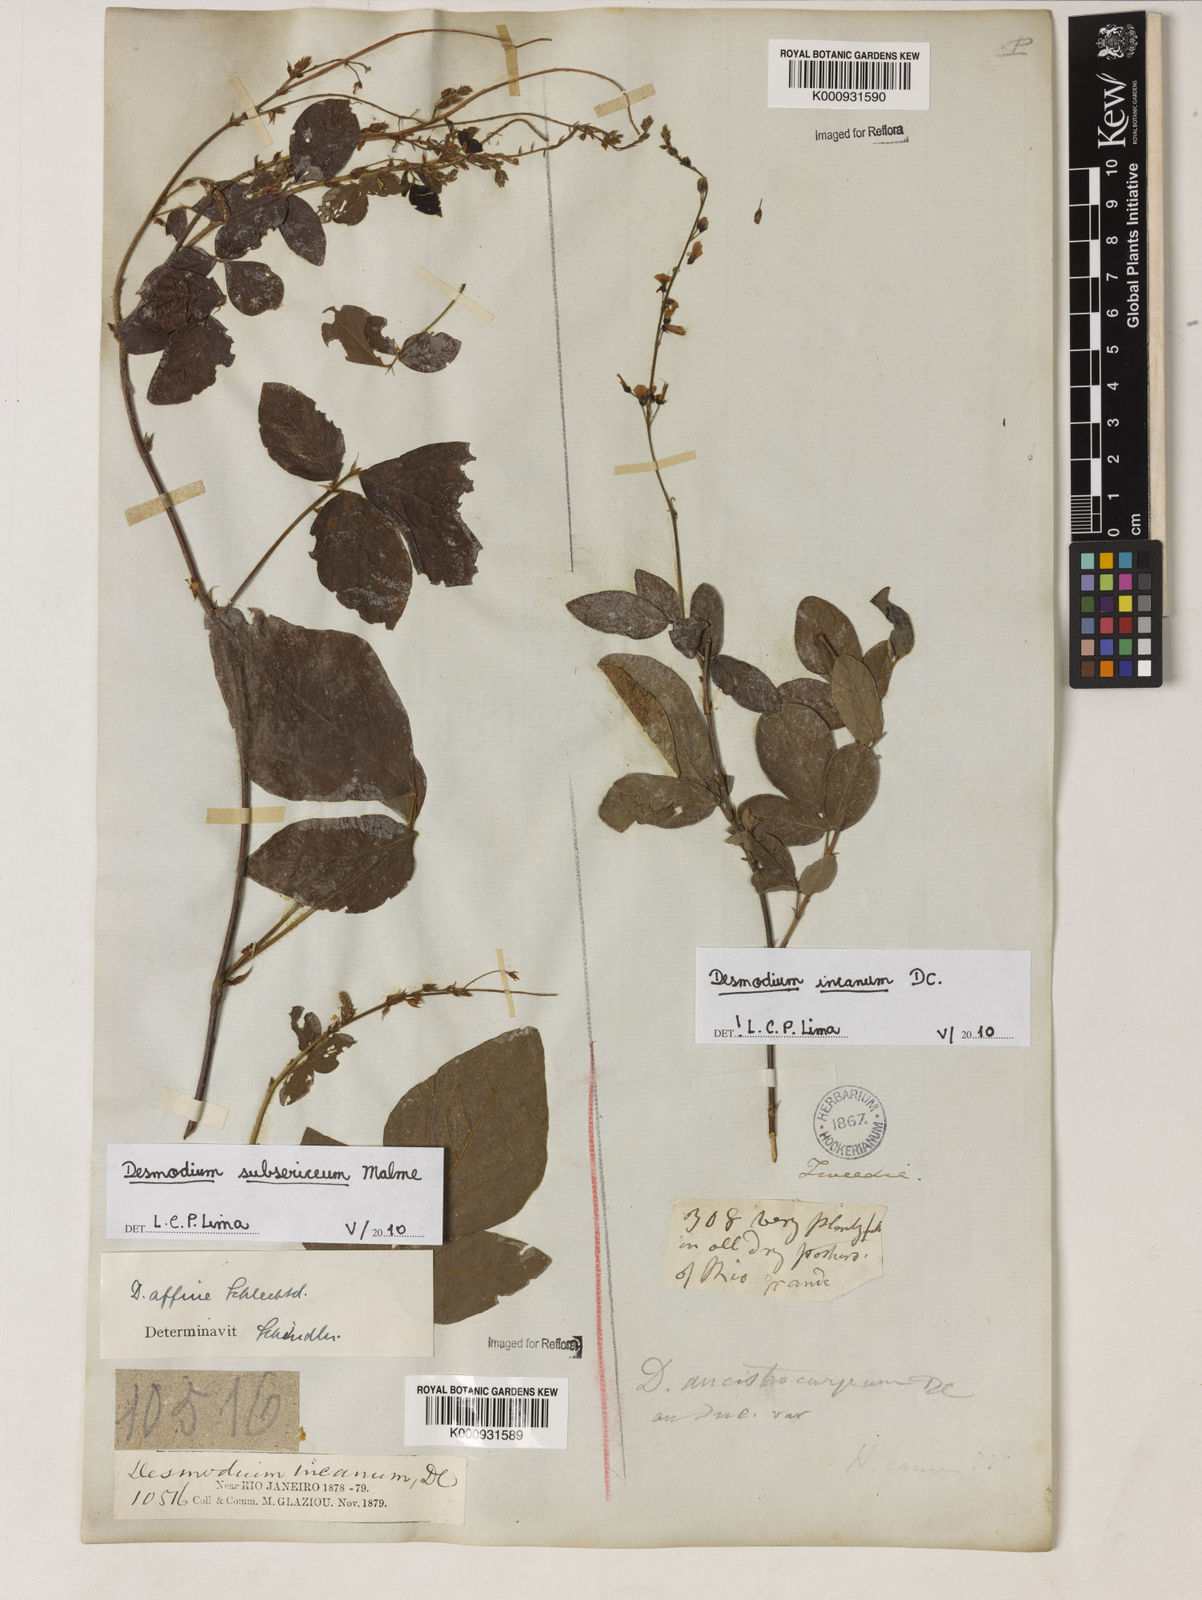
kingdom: Plantae
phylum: Tracheophyta
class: Magnoliopsida
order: Fabales
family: Fabaceae
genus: Desmodium
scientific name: Desmodium incanum
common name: Tickclover
